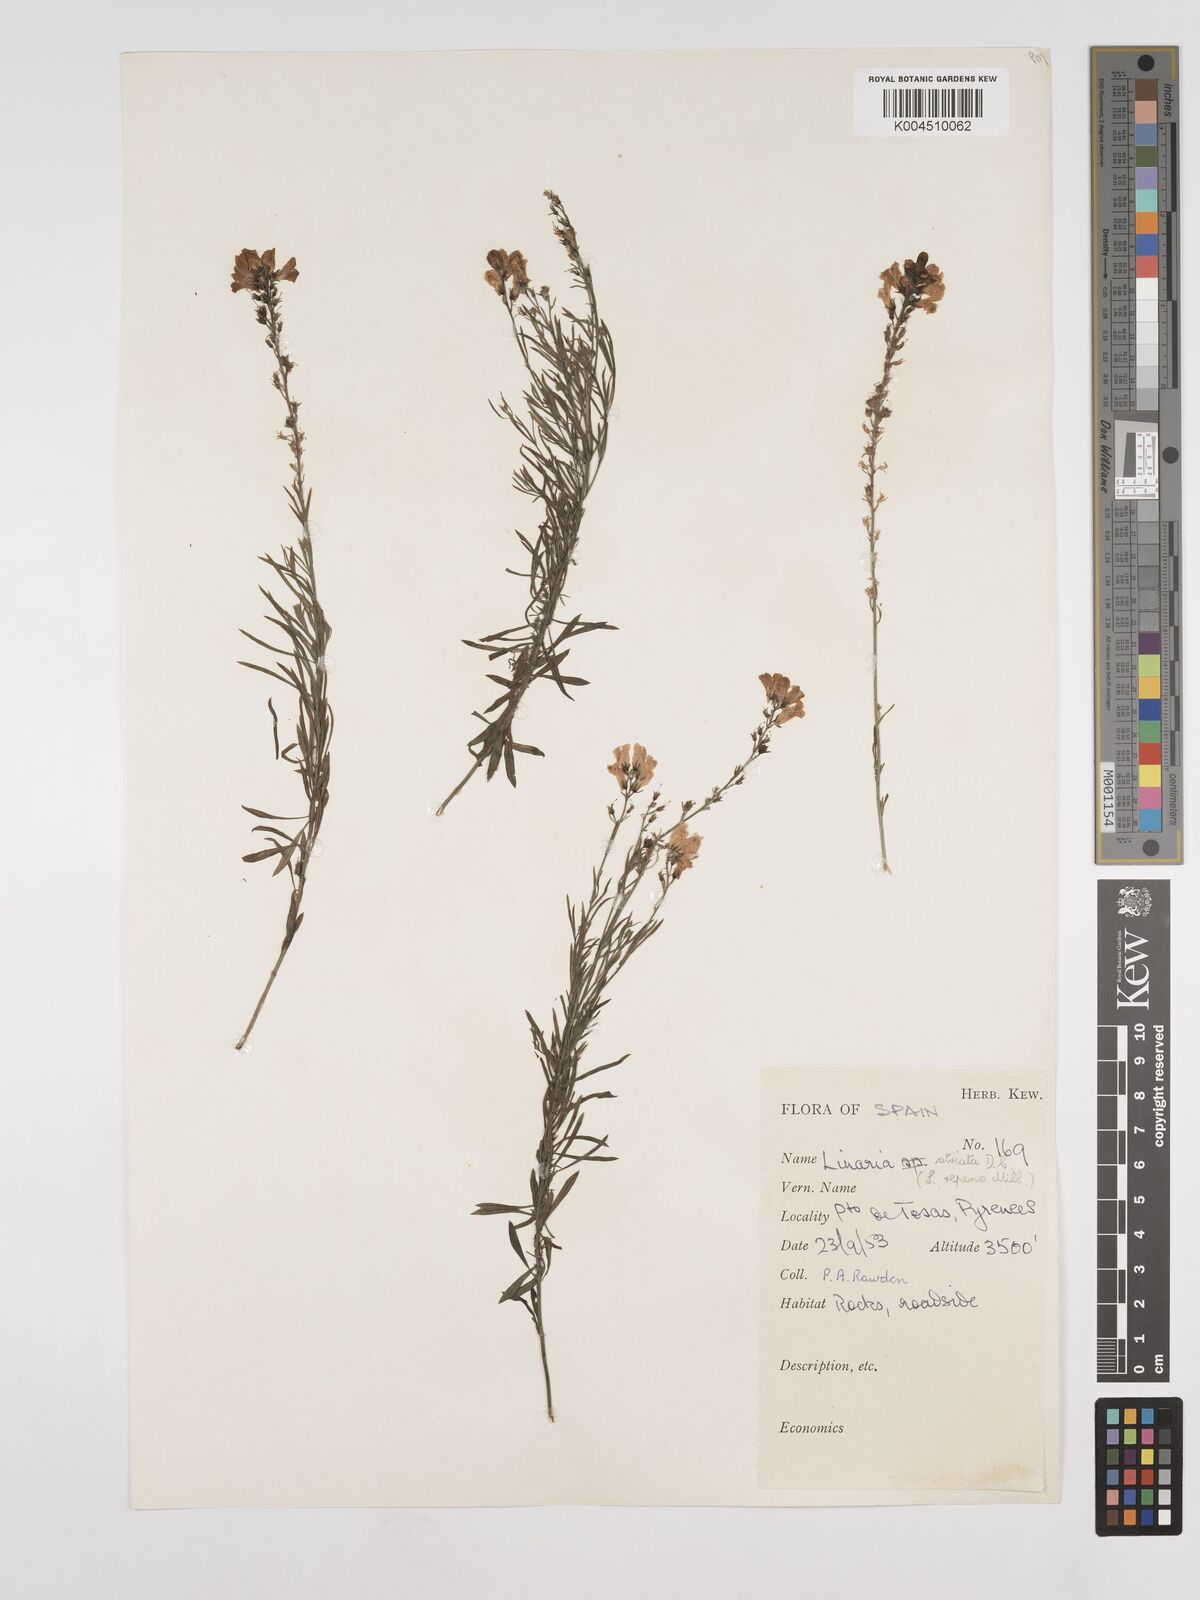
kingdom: Plantae
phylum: Tracheophyta
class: Magnoliopsida
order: Lamiales
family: Plantaginaceae
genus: Linaria
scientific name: Linaria
